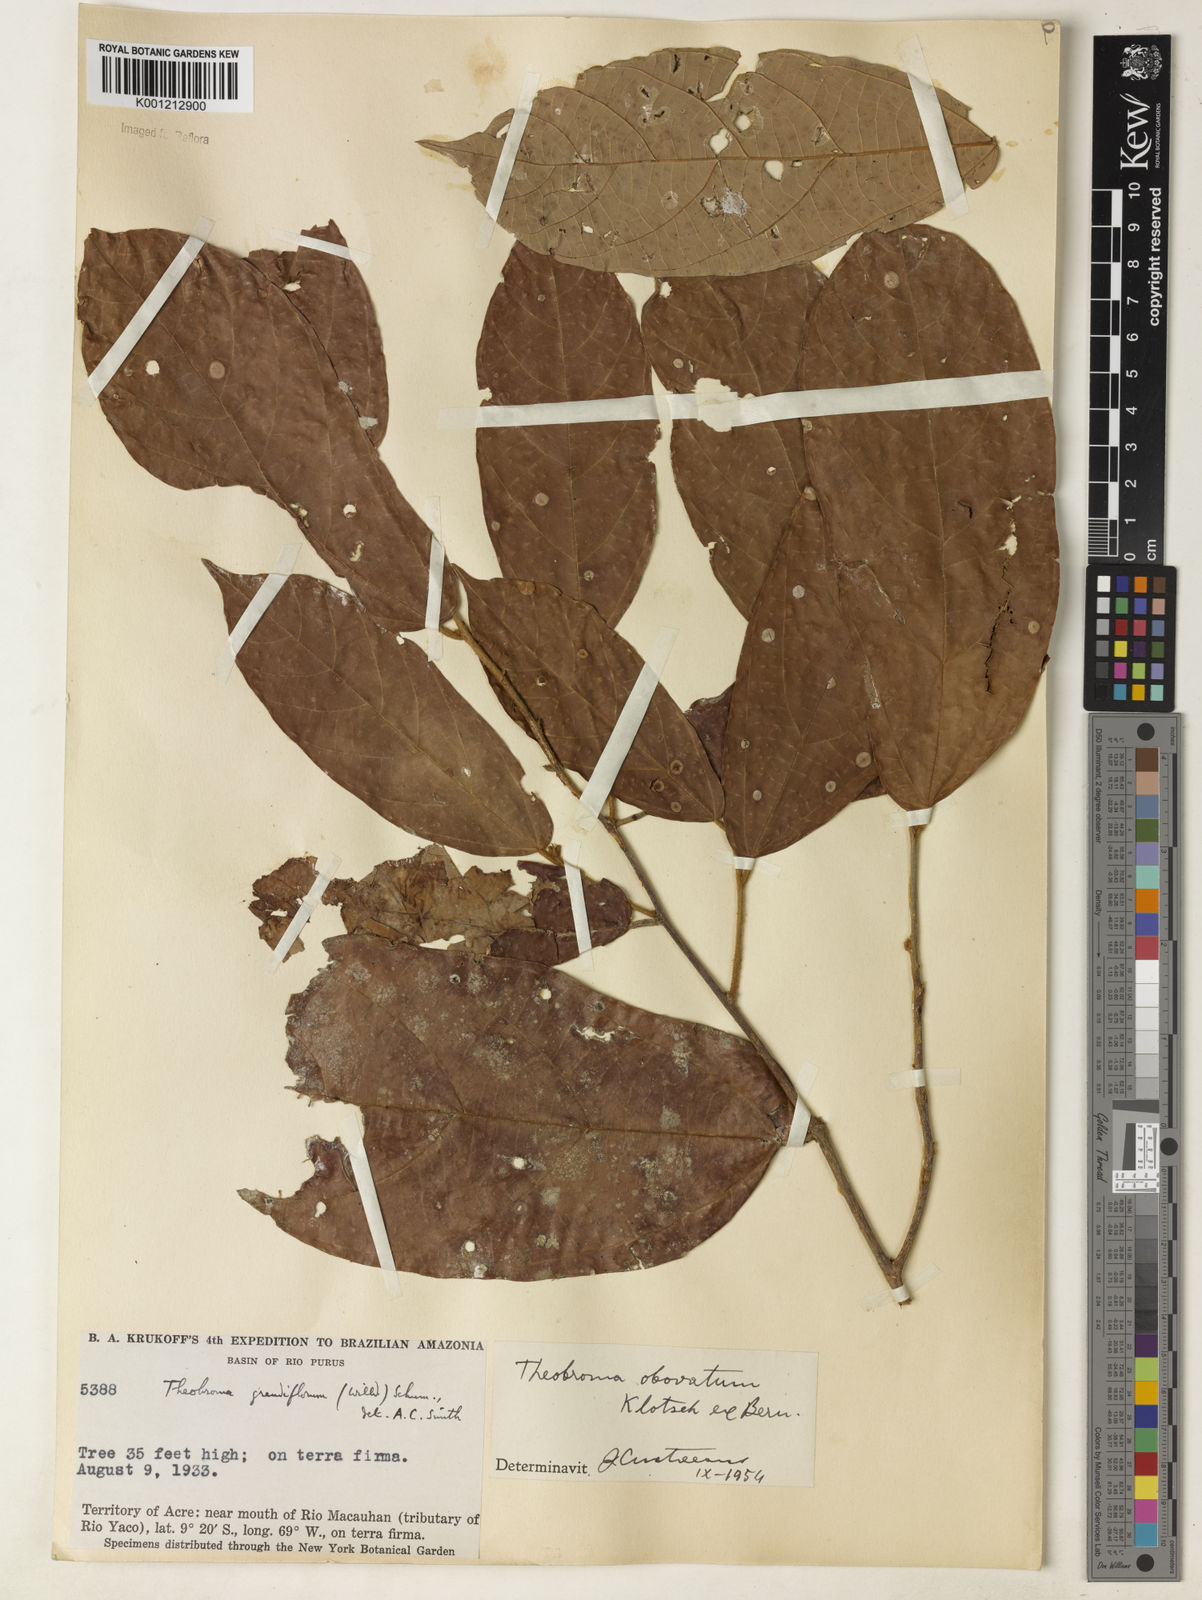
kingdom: Plantae
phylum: Tracheophyta
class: Magnoliopsida
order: Malvales
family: Malvaceae
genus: Theobroma
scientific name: Theobroma obovatum
